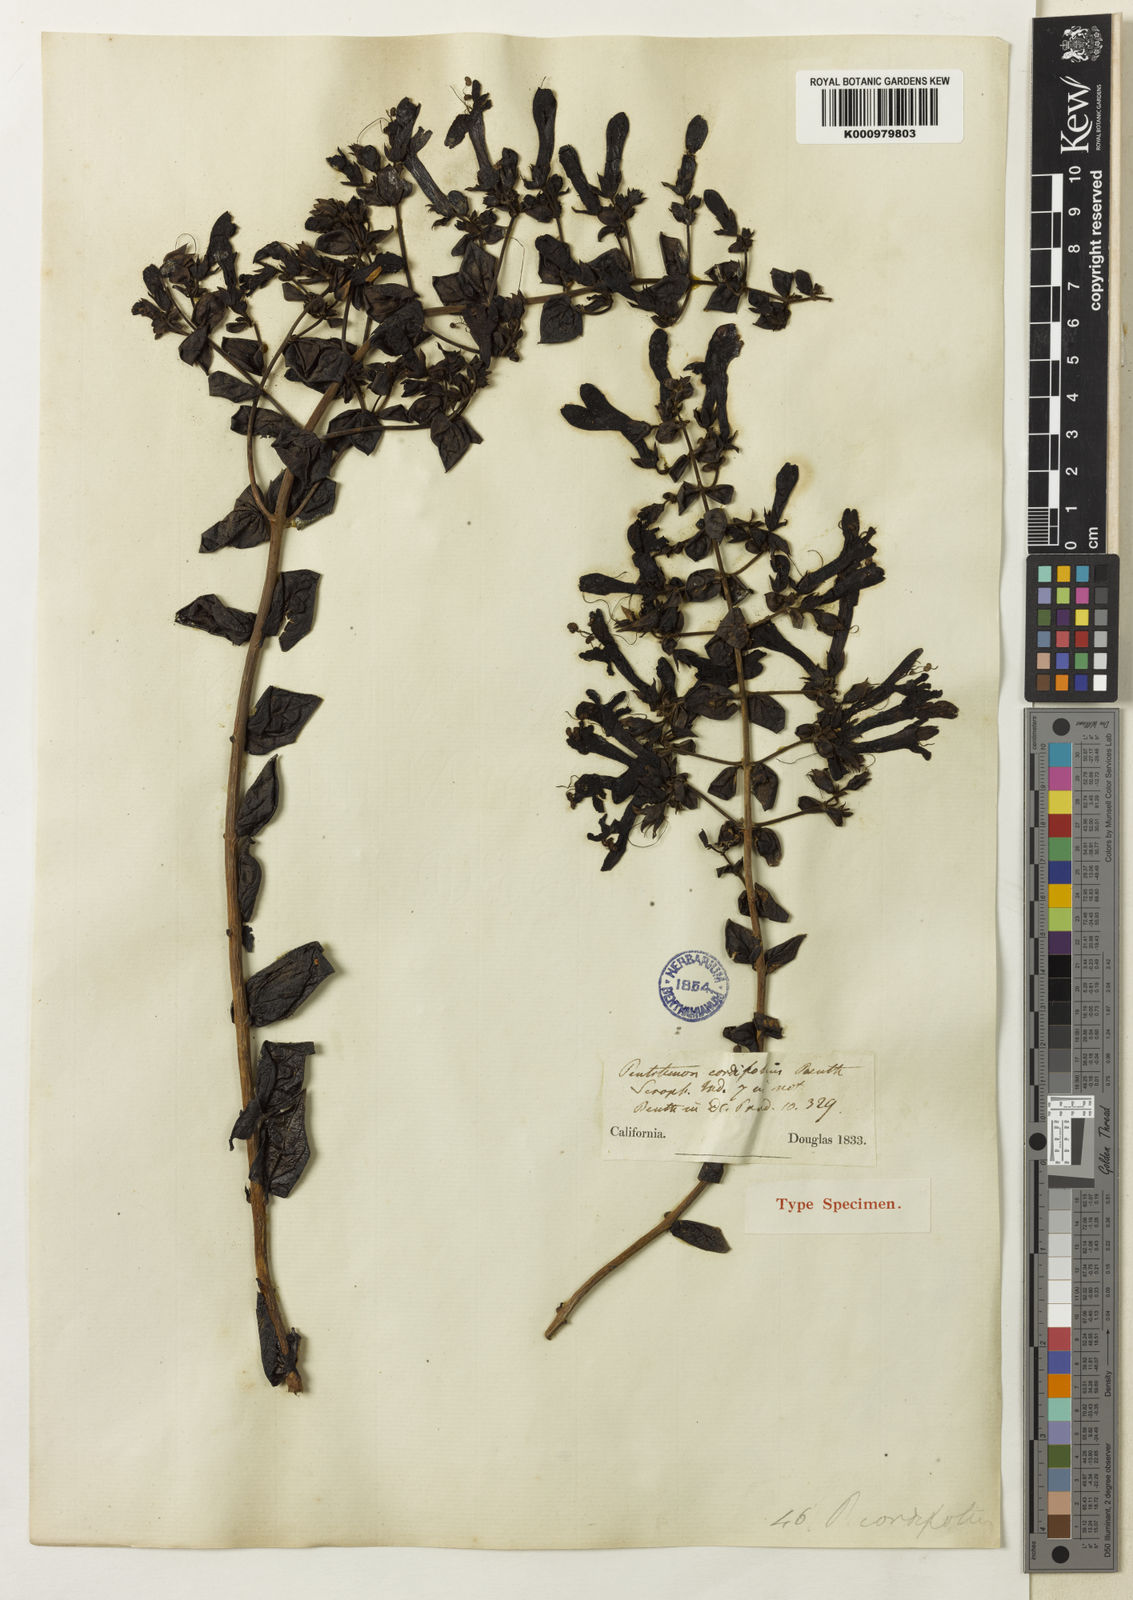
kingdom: Plantae
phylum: Tracheophyta
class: Magnoliopsida
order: Lamiales
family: Plantaginaceae
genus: Keckiella
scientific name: Keckiella cordifolia
